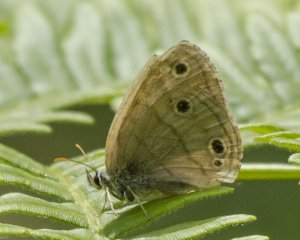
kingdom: Animalia
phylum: Arthropoda
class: Insecta
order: Lepidoptera
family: Nymphalidae
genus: Euptychia
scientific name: Euptychia cymela
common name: Little Wood Satyr
